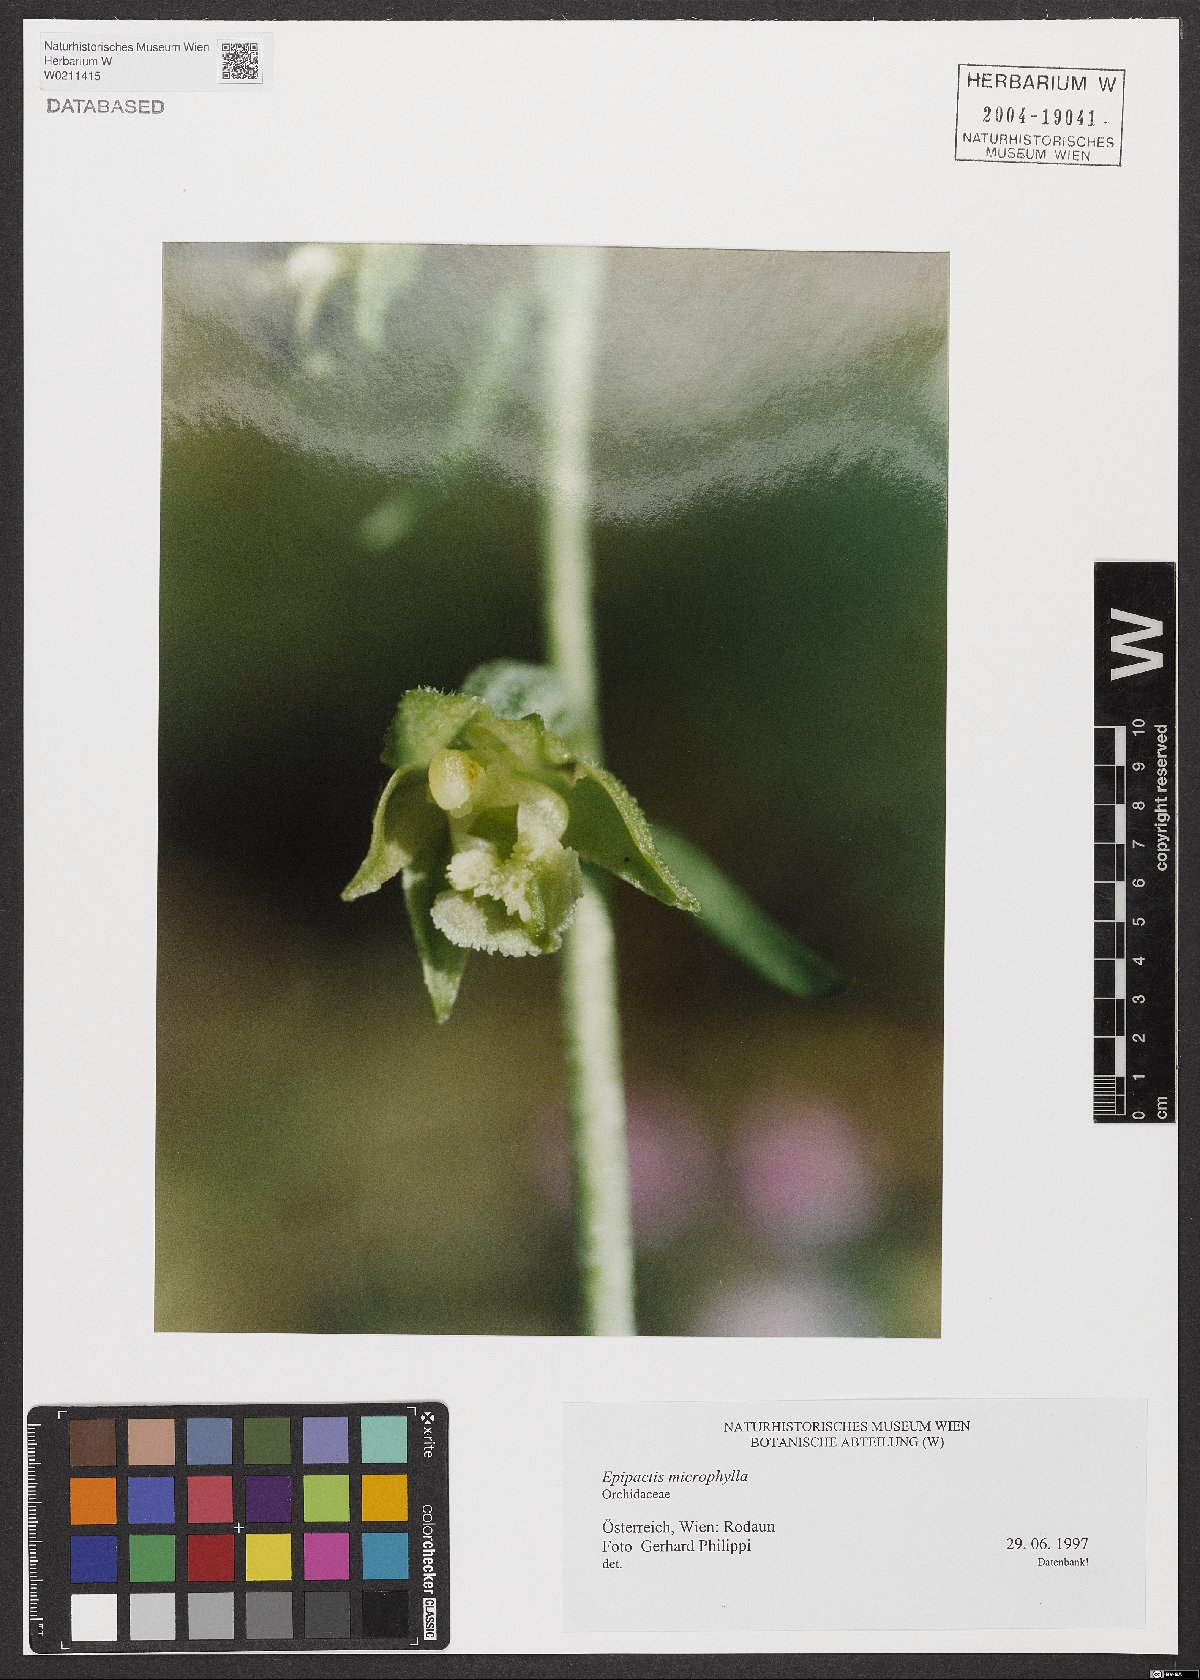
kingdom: Plantae
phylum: Tracheophyta
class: Liliopsida
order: Asparagales
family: Orchidaceae
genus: Epipactis
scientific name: Epipactis microphylla
